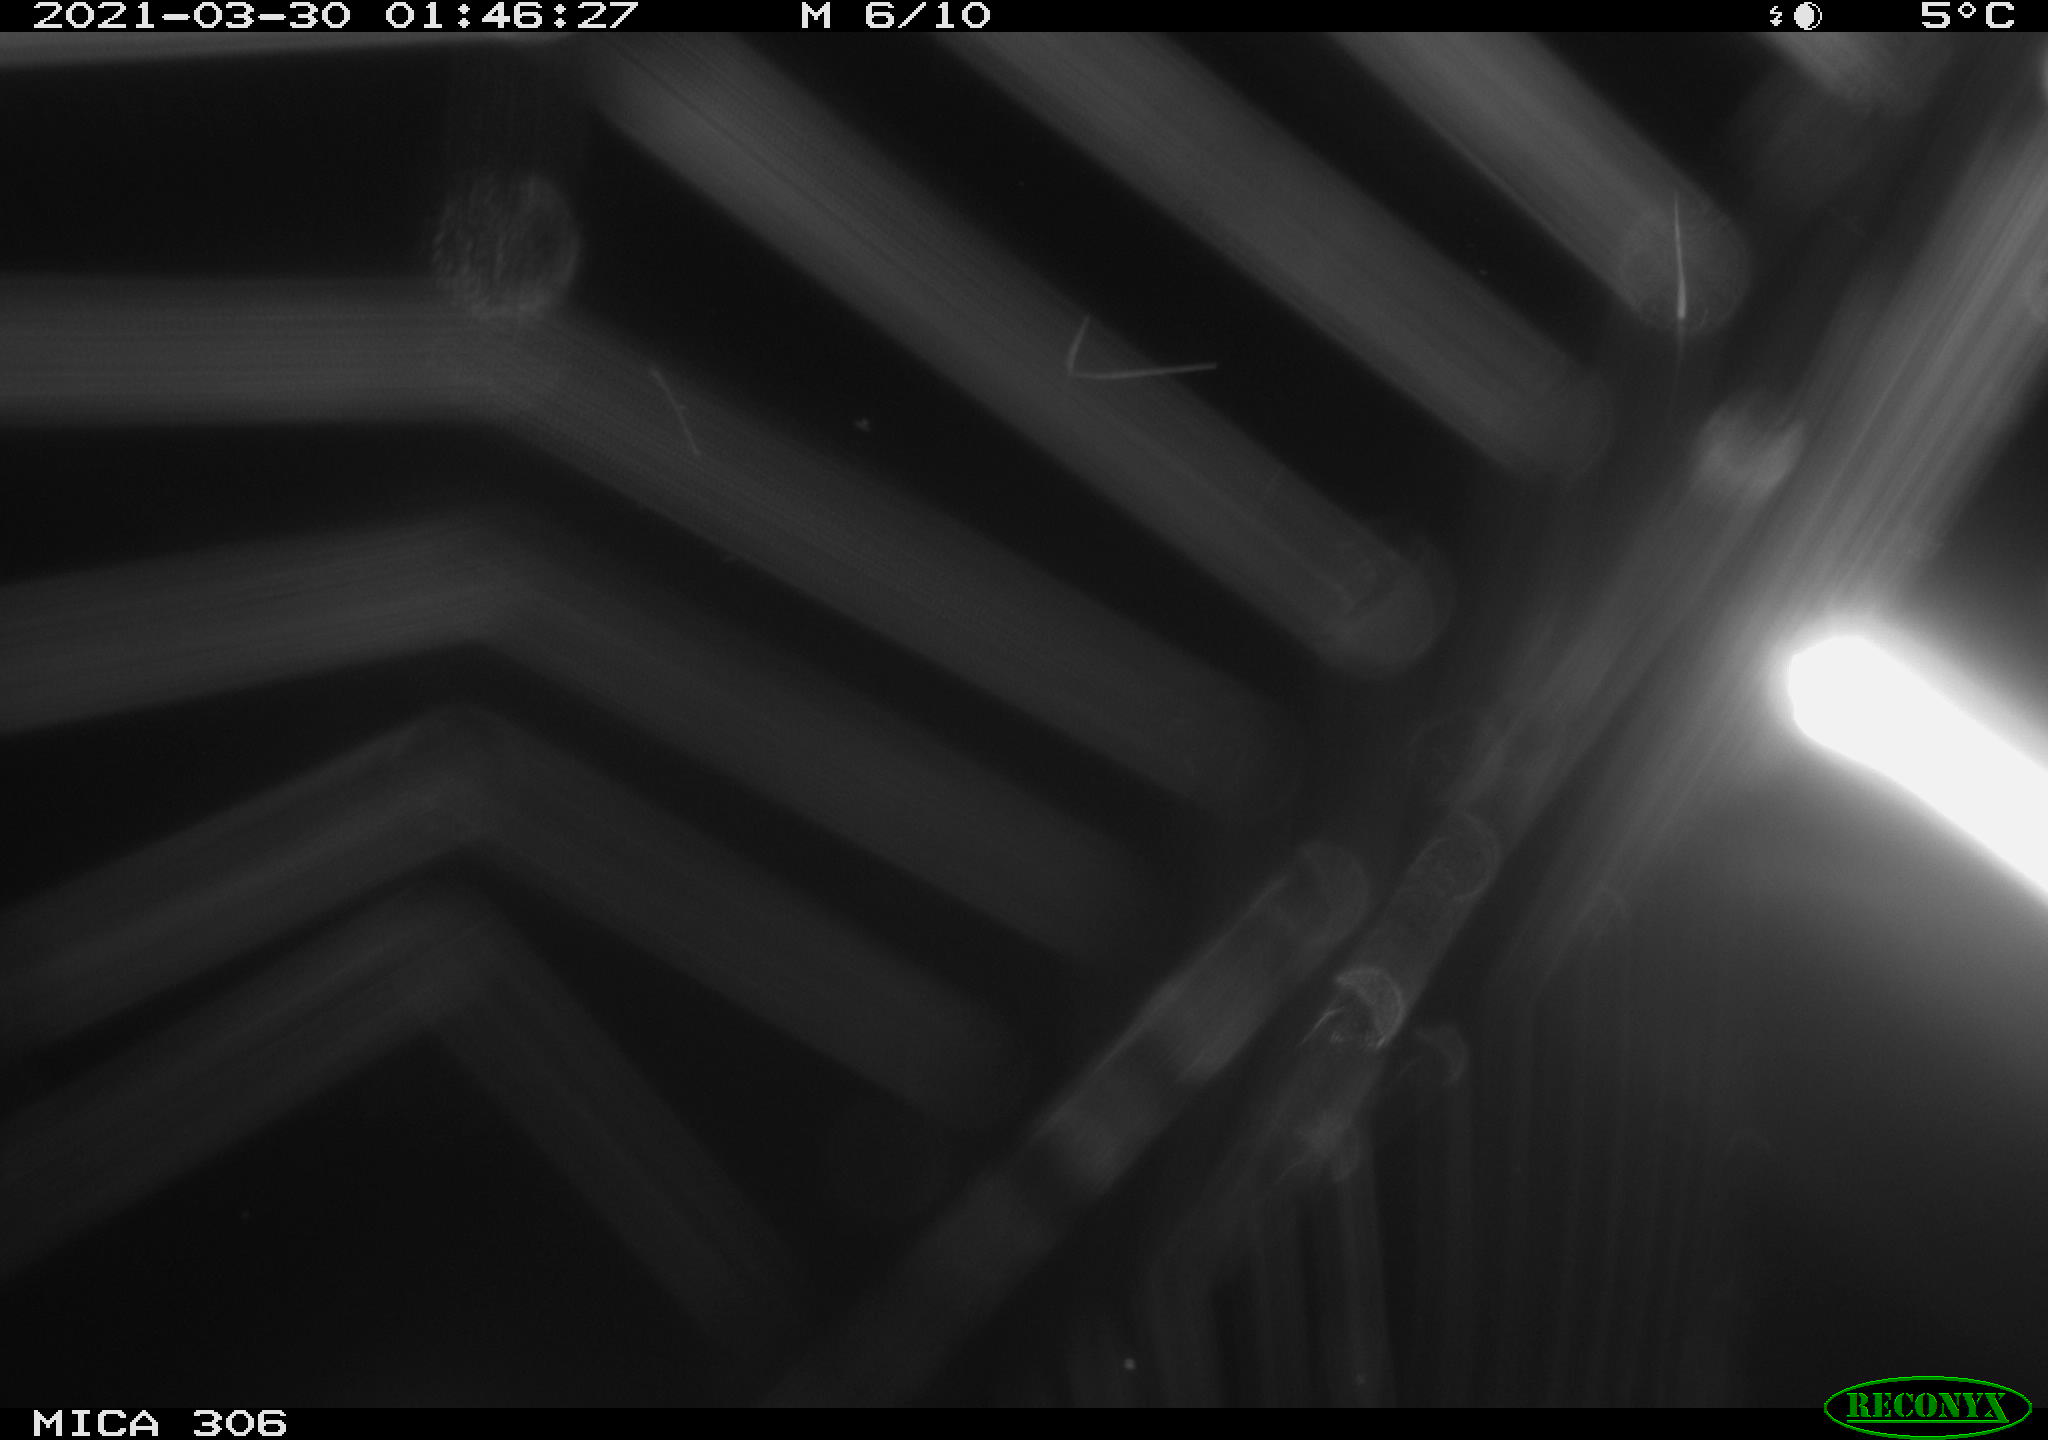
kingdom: Animalia
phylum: Chordata
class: Aves
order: Anseriformes
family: Anatidae
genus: Anas
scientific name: Anas platyrhynchos
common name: Mallard
